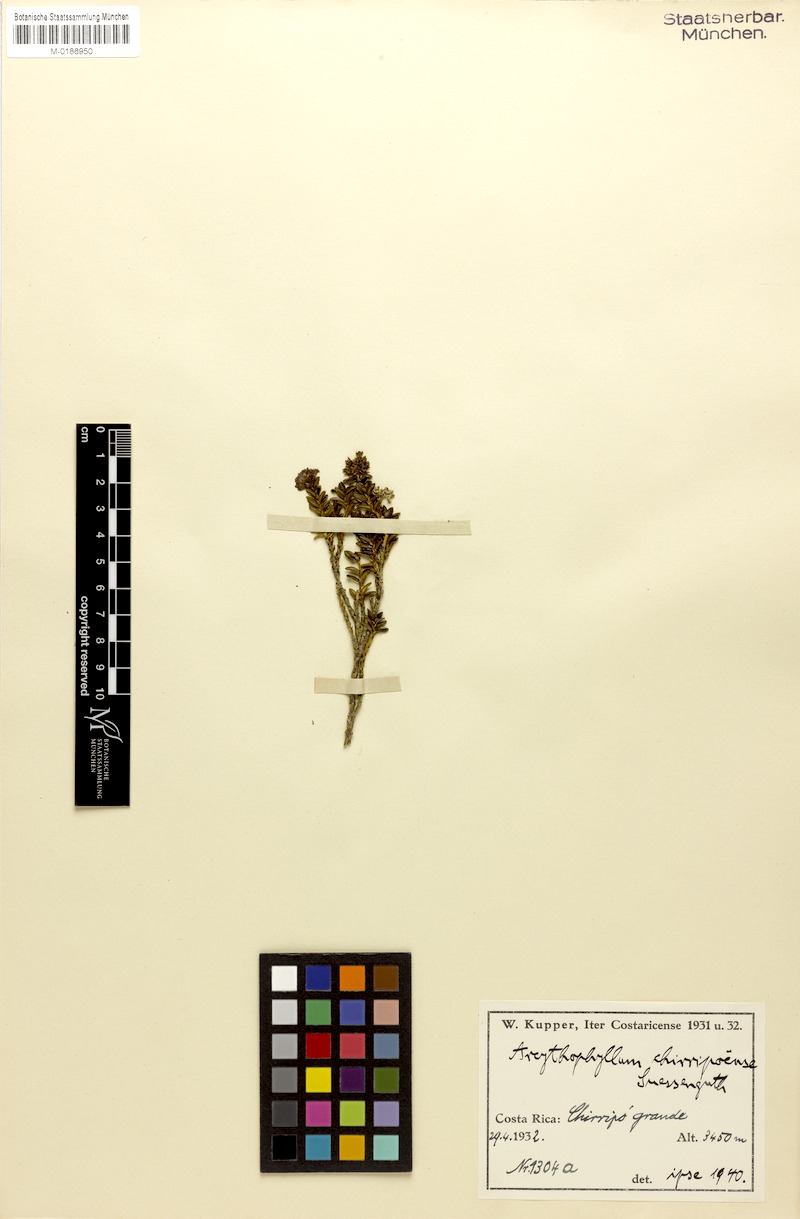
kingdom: Plantae
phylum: Tracheophyta
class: Magnoliopsida
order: Gentianales
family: Rubiaceae
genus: Arcytophyllum
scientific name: Arcytophyllum lavarum
